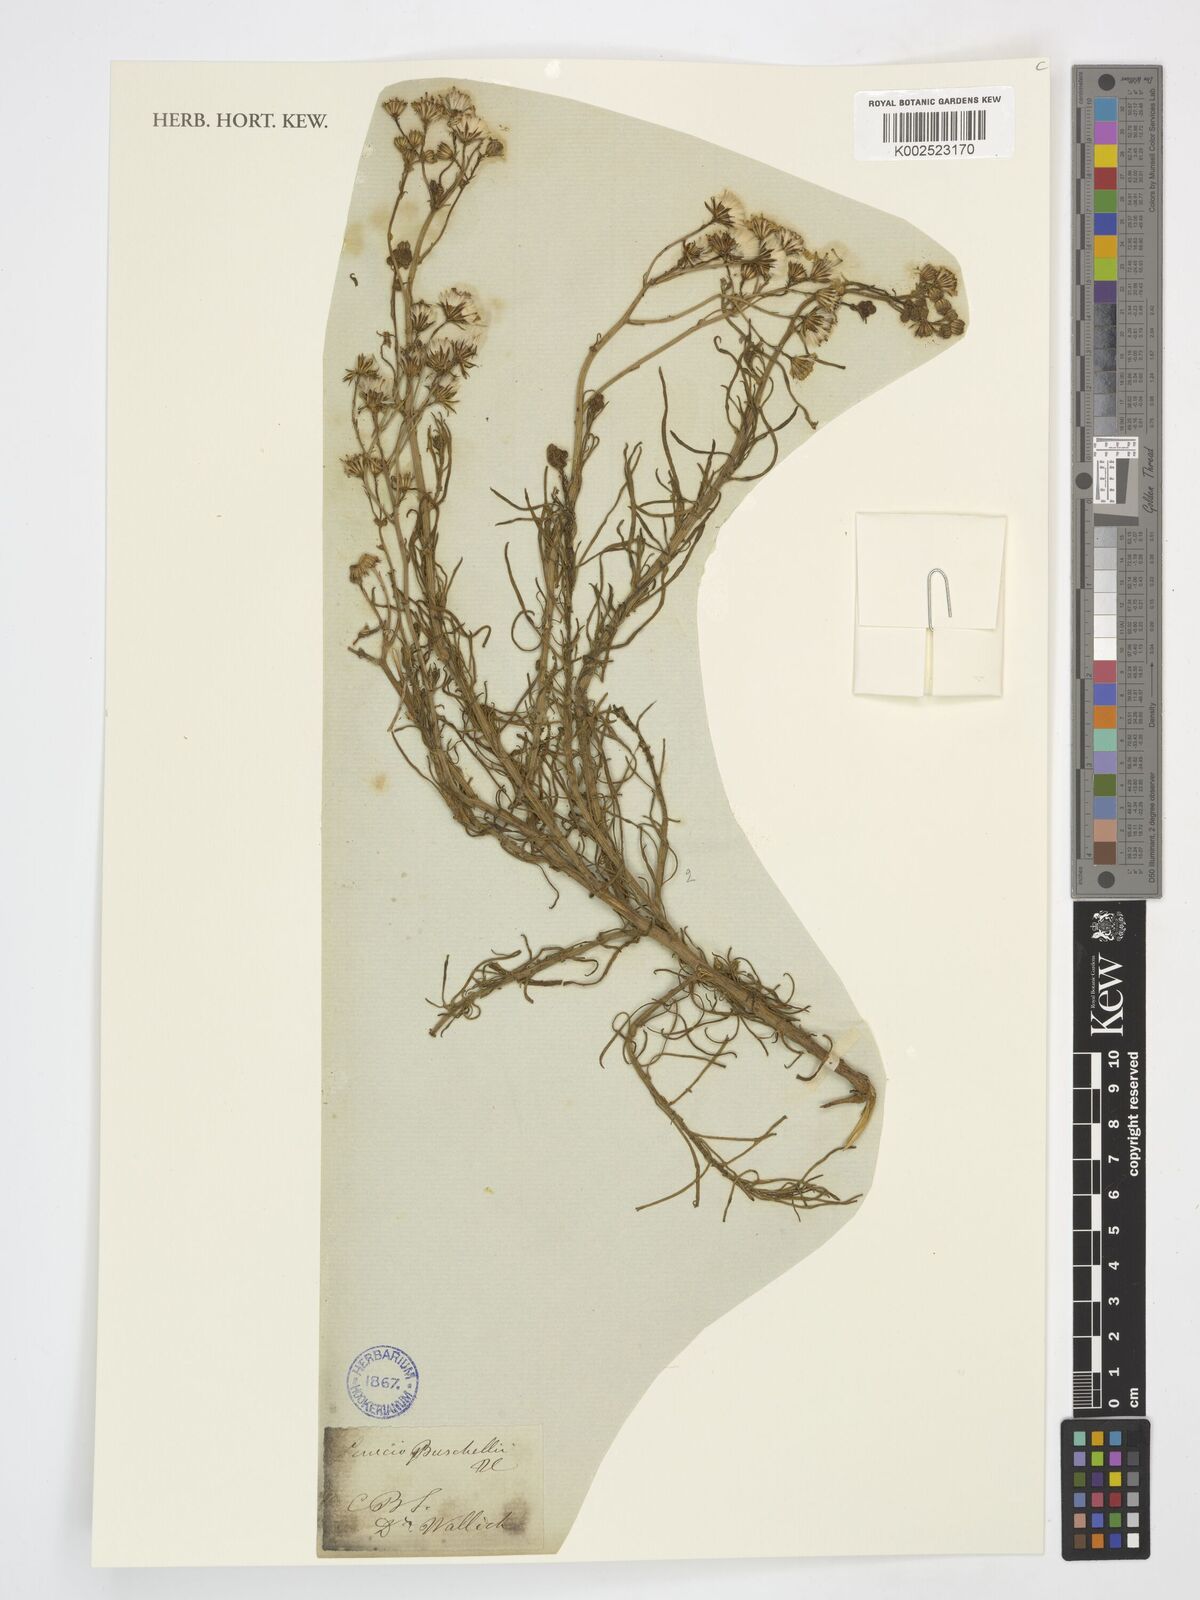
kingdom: Plantae
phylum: Tracheophyta
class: Magnoliopsida
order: Asterales
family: Asteraceae
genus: Senecio
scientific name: Senecio burchellii
